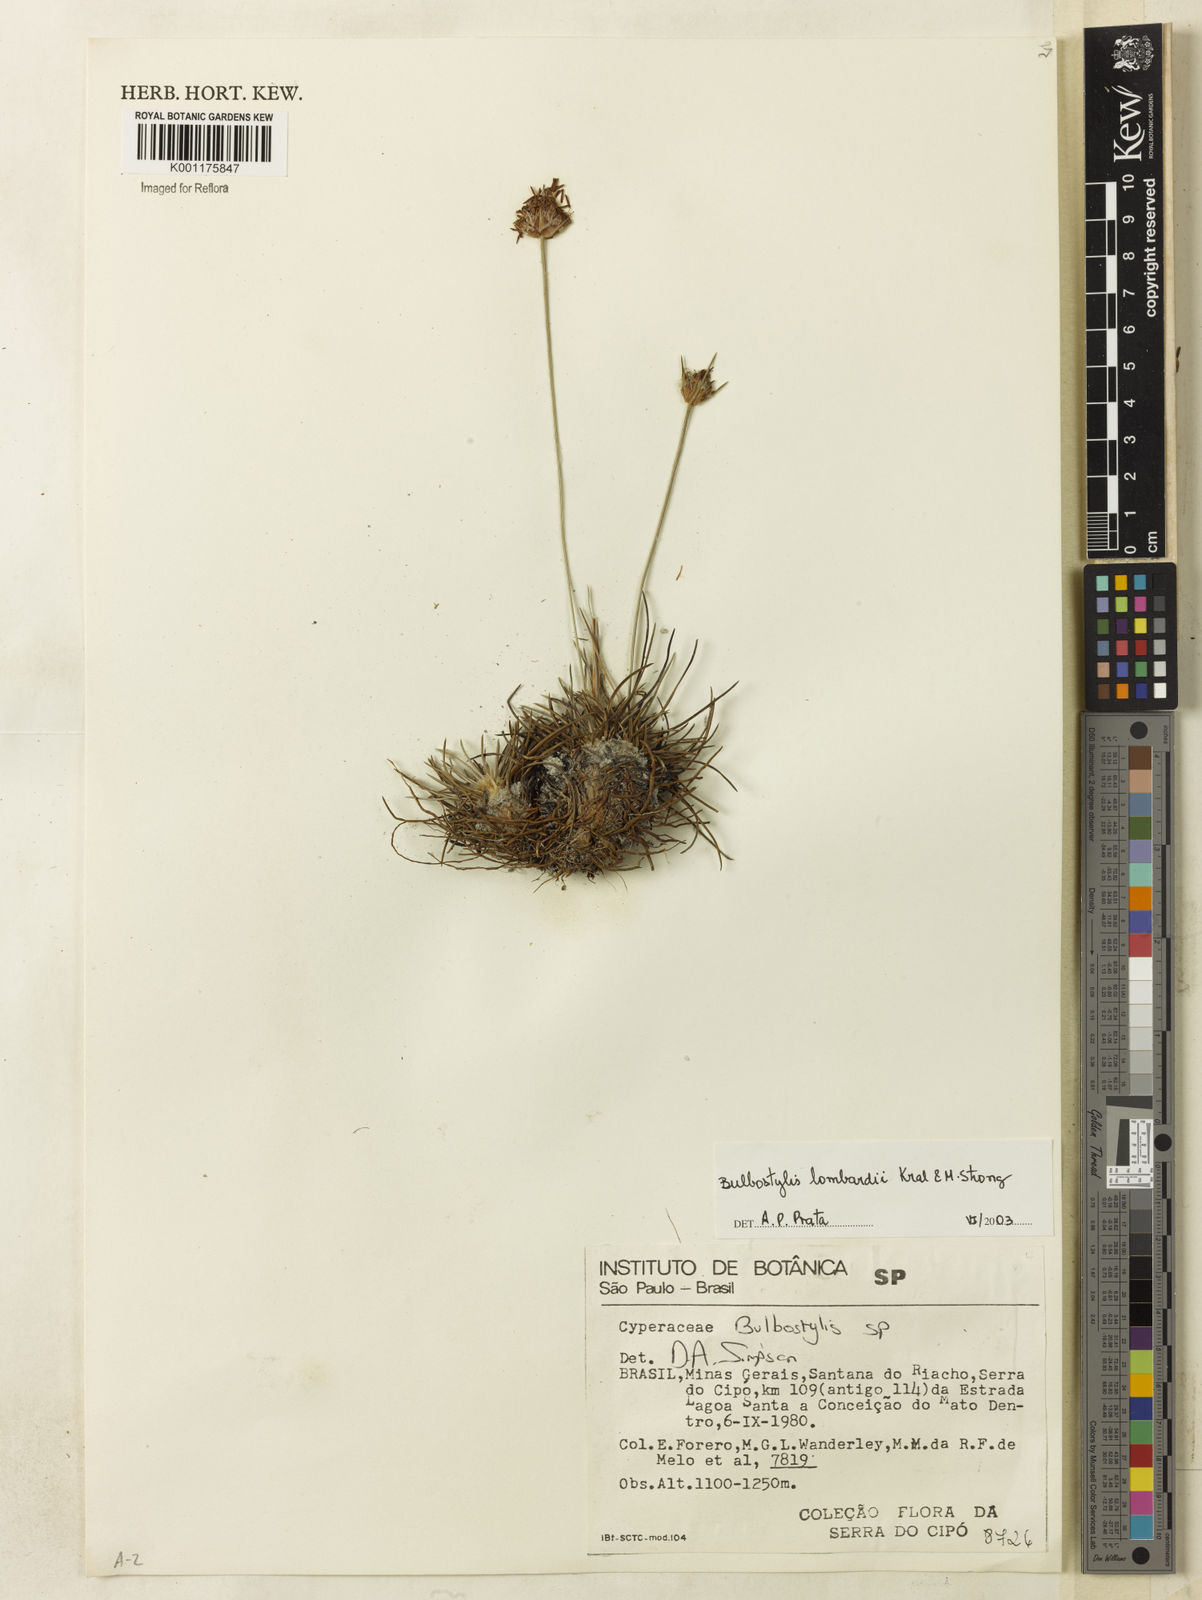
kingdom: Plantae
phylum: Tracheophyta
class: Liliopsida
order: Poales
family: Cyperaceae
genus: Bulbostylis
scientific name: Bulbostylis lombardii
